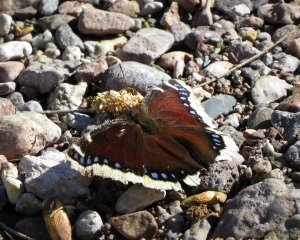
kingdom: Animalia
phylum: Arthropoda
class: Insecta
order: Lepidoptera
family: Nymphalidae
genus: Nymphalis
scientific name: Nymphalis antiopa
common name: Mourning Cloak
